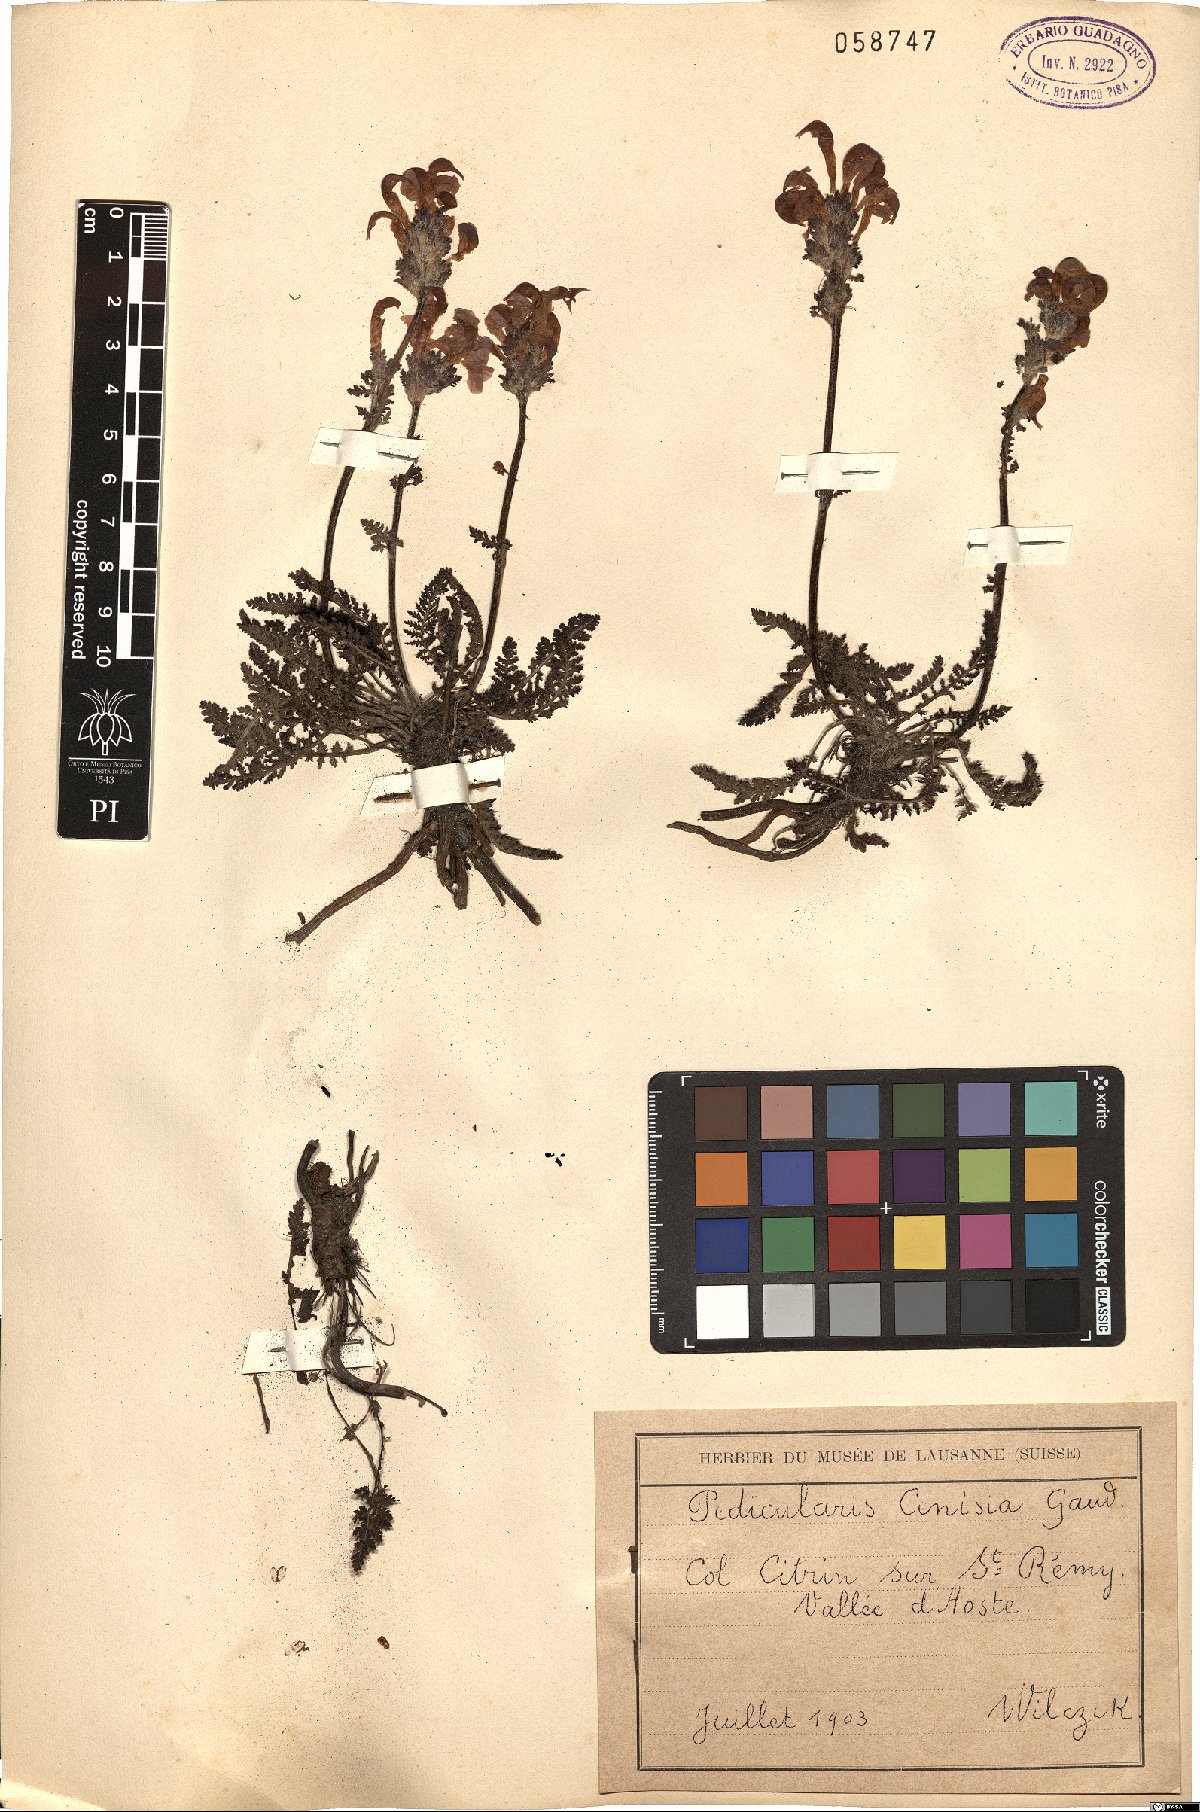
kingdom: Plantae
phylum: Tracheophyta
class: Magnoliopsida
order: Lamiales
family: Orobanchaceae
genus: Pedicularis
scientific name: Pedicularis cenisia
